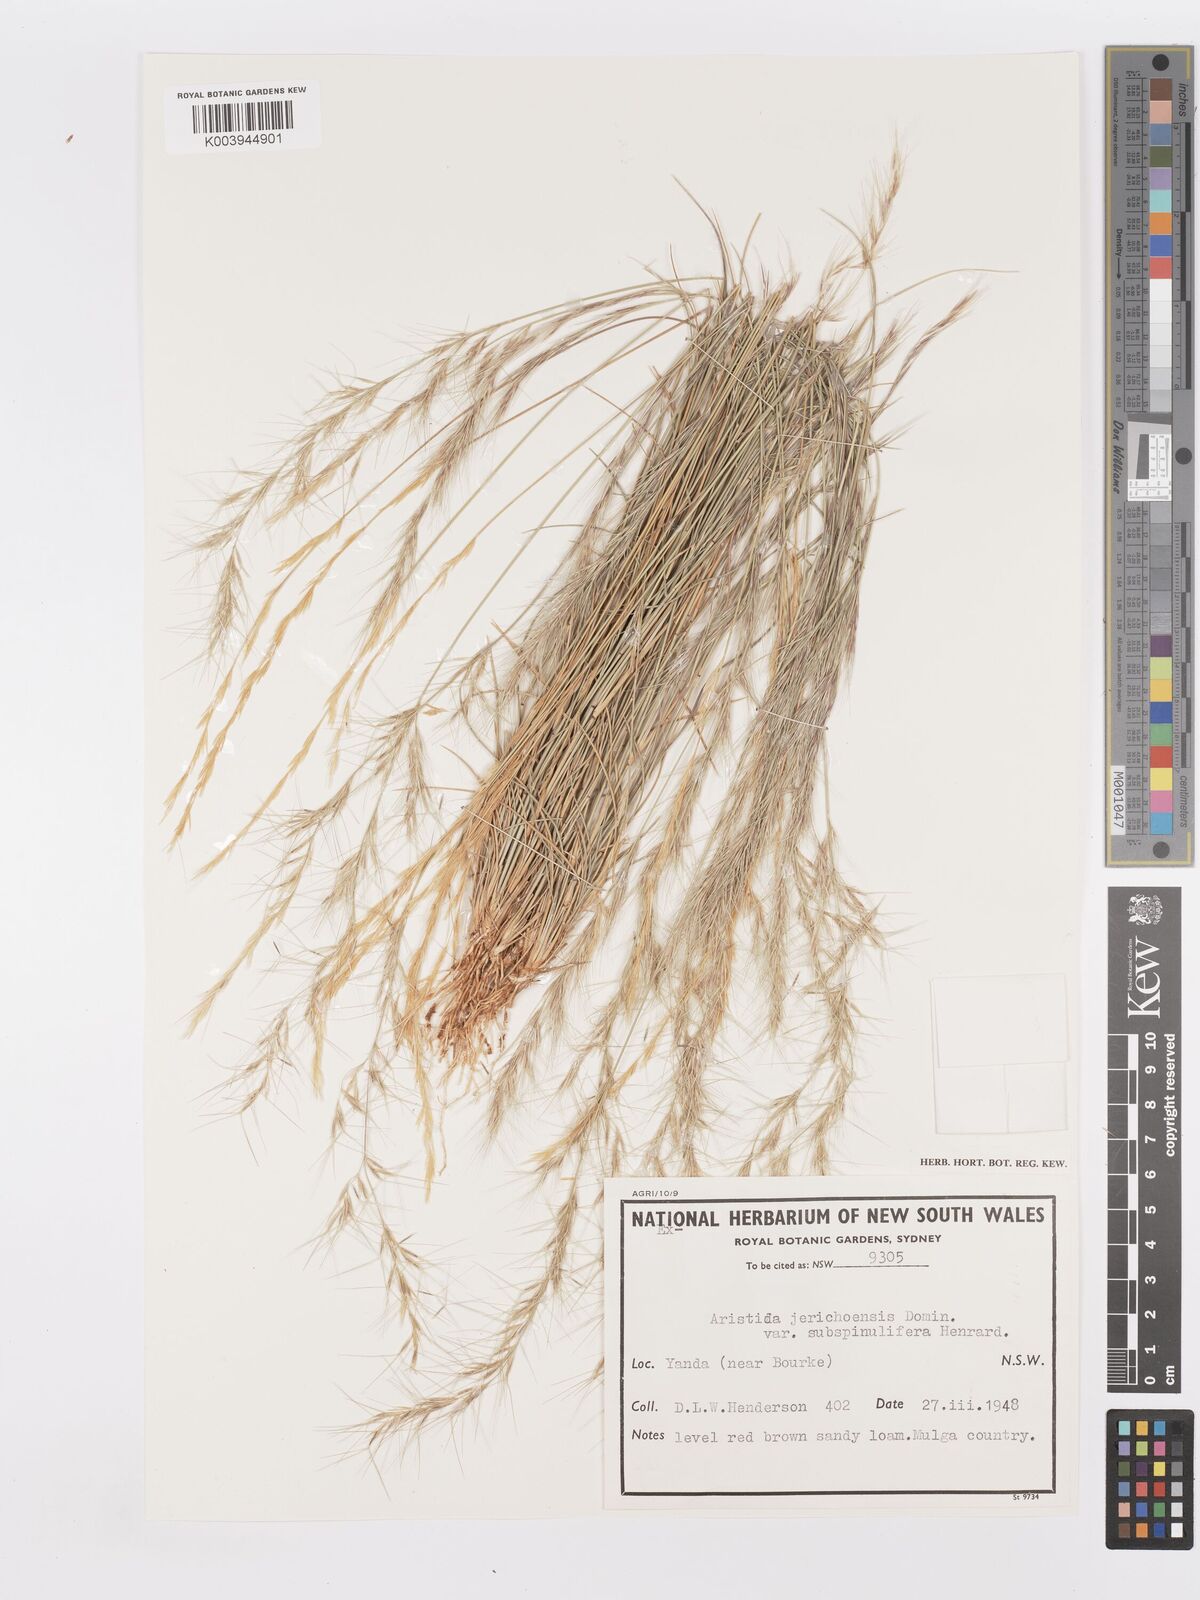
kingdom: Plantae
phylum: Tracheophyta
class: Liliopsida
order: Poales
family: Poaceae
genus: Aristida
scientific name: Aristida jerichoensis
